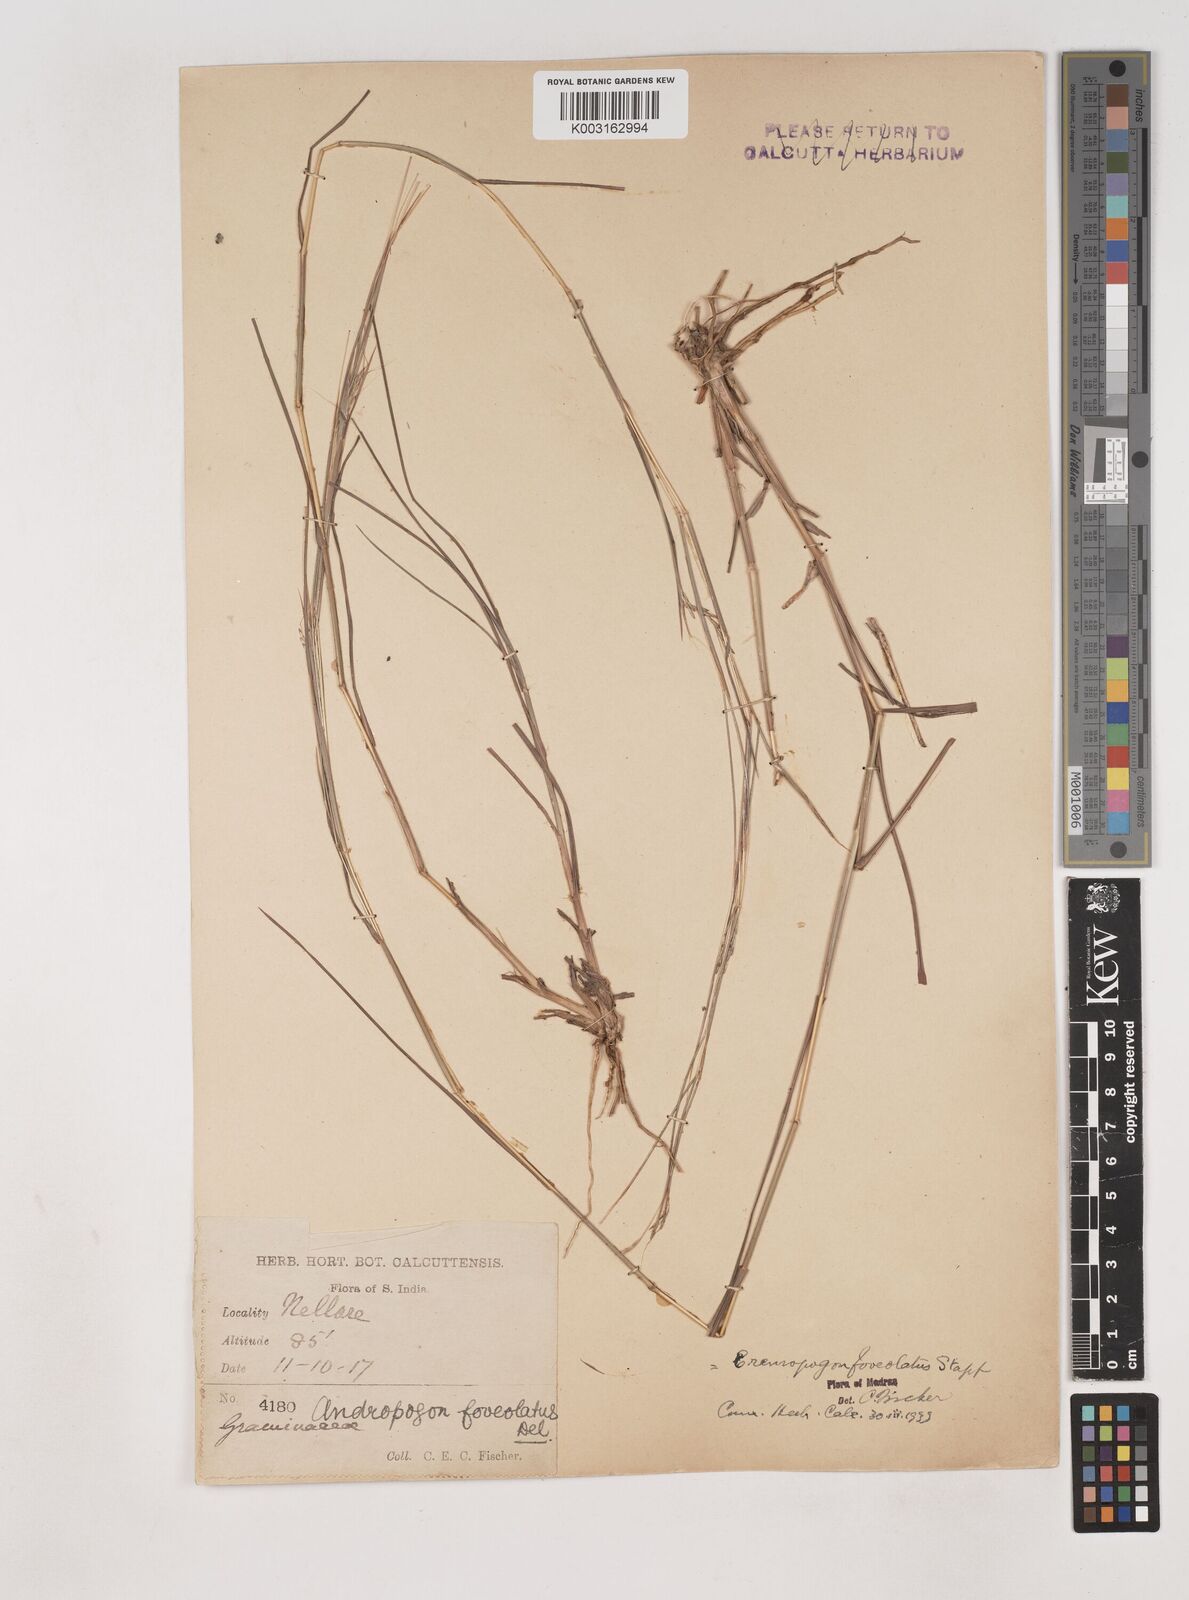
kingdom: Plantae
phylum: Tracheophyta
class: Liliopsida
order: Poales
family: Poaceae
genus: Dichanthium
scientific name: Dichanthium foveolatum
